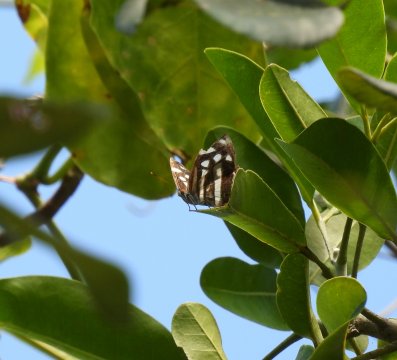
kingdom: Animalia
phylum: Arthropoda
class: Insecta
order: Lepidoptera
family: Nymphalidae
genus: Dynamine
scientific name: Dynamine mylitta
